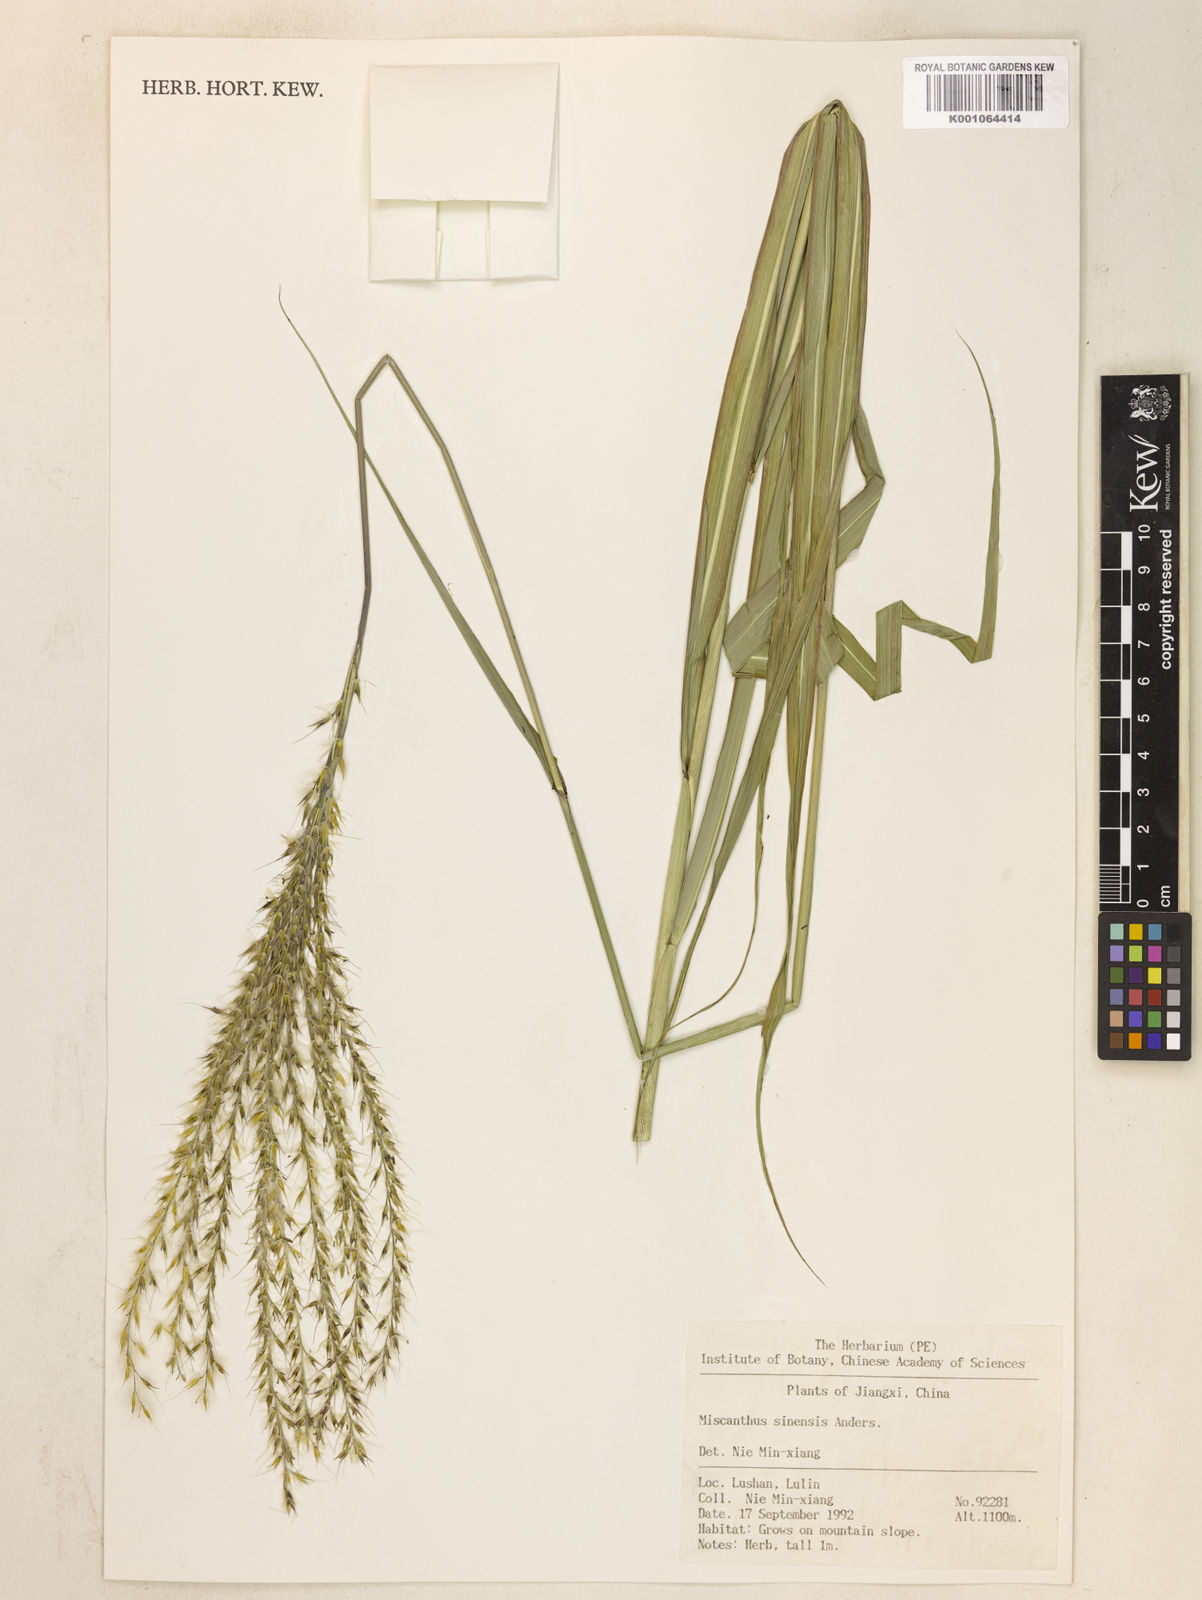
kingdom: Plantae
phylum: Tracheophyta
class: Liliopsida
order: Poales
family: Poaceae
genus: Miscanthus
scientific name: Miscanthus sinensis
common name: Chinese silvergrass
